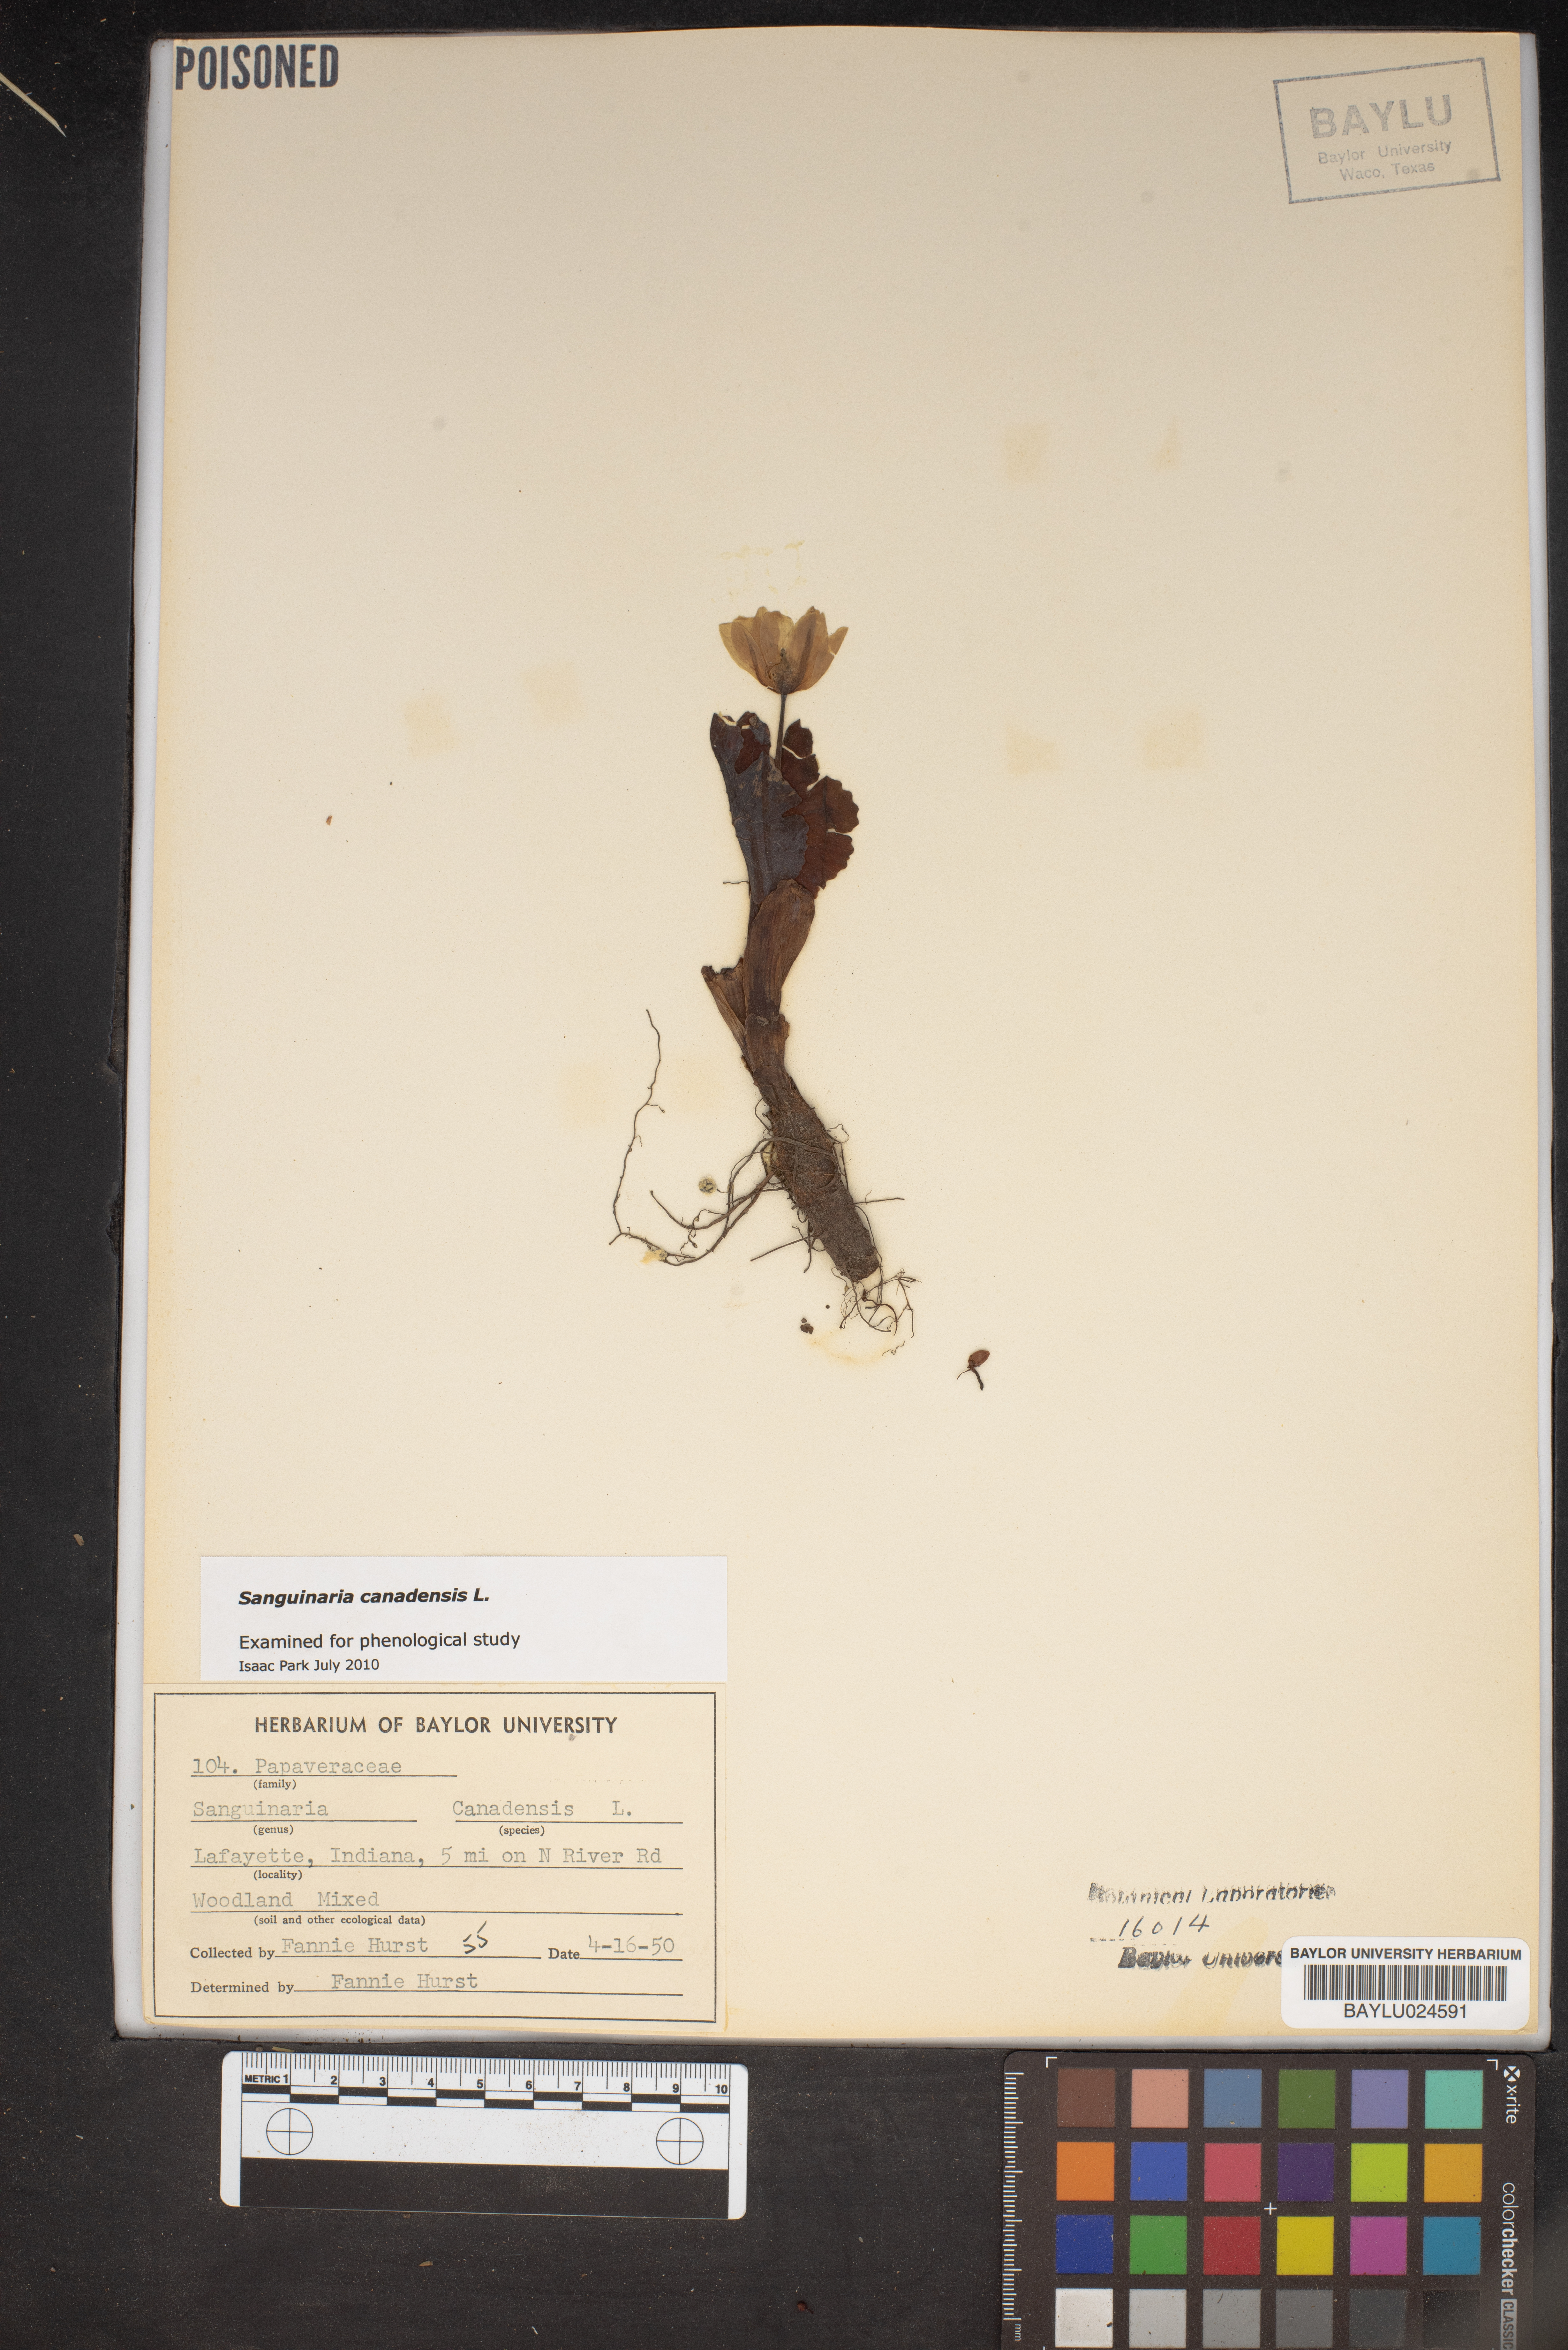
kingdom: Plantae
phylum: Tracheophyta
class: Magnoliopsida
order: Ranunculales
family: Papaveraceae
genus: Sanguinaria
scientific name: Sanguinaria canadensis
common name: Bloodroot
